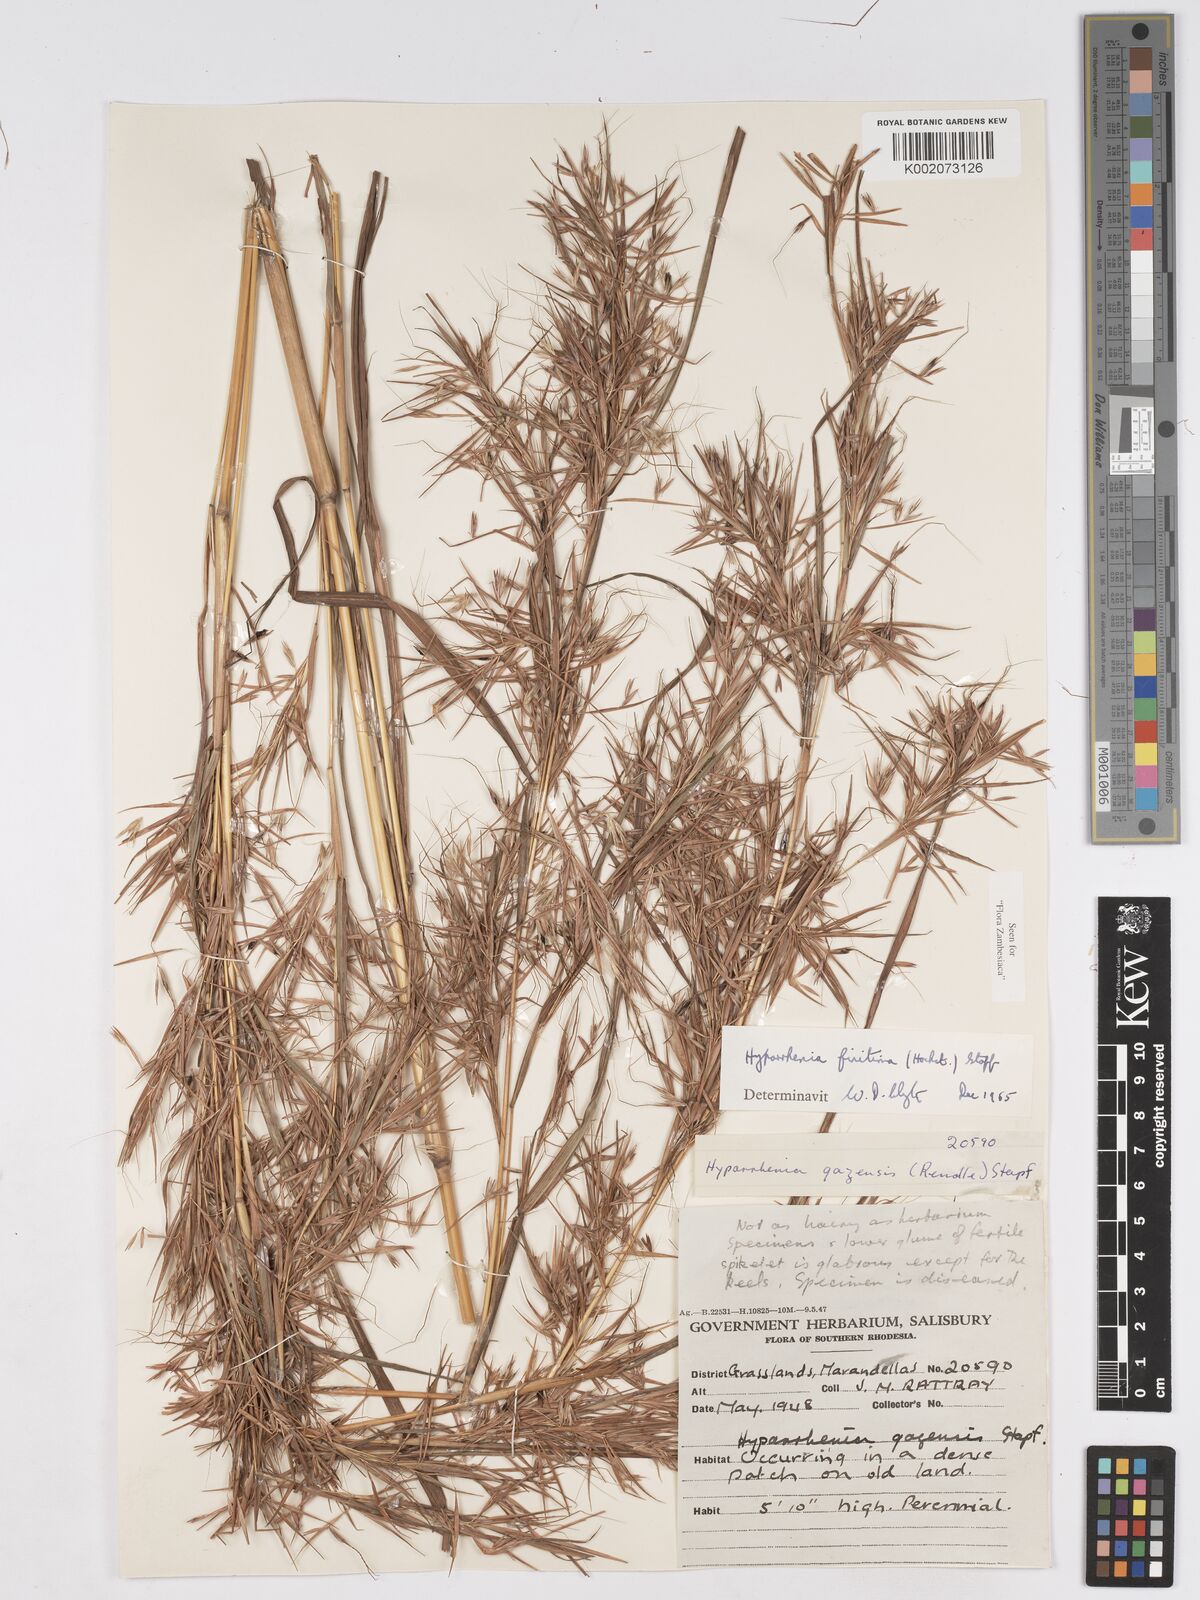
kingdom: Plantae
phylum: Tracheophyta
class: Liliopsida
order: Poales
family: Poaceae
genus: Hyparrhenia
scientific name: Hyparrhenia finitima
